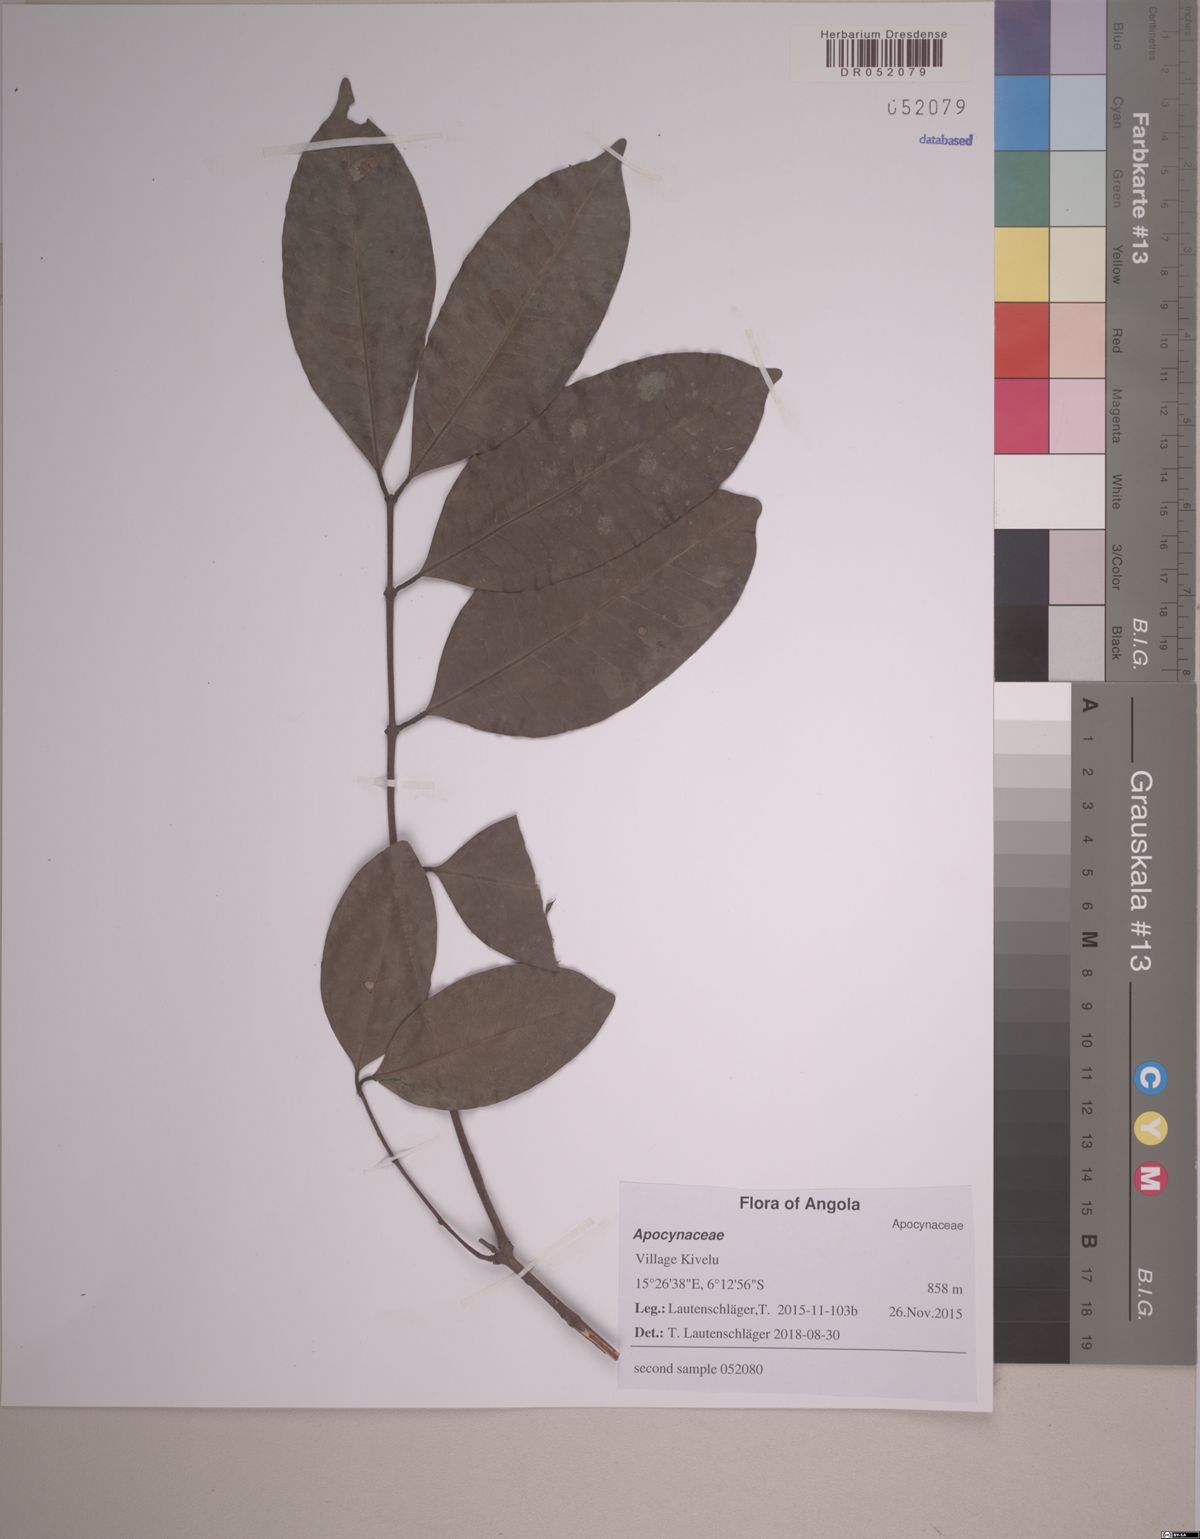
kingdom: Plantae
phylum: Tracheophyta
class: Magnoliopsida
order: Gentianales
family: Apocynaceae
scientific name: Apocynaceae
